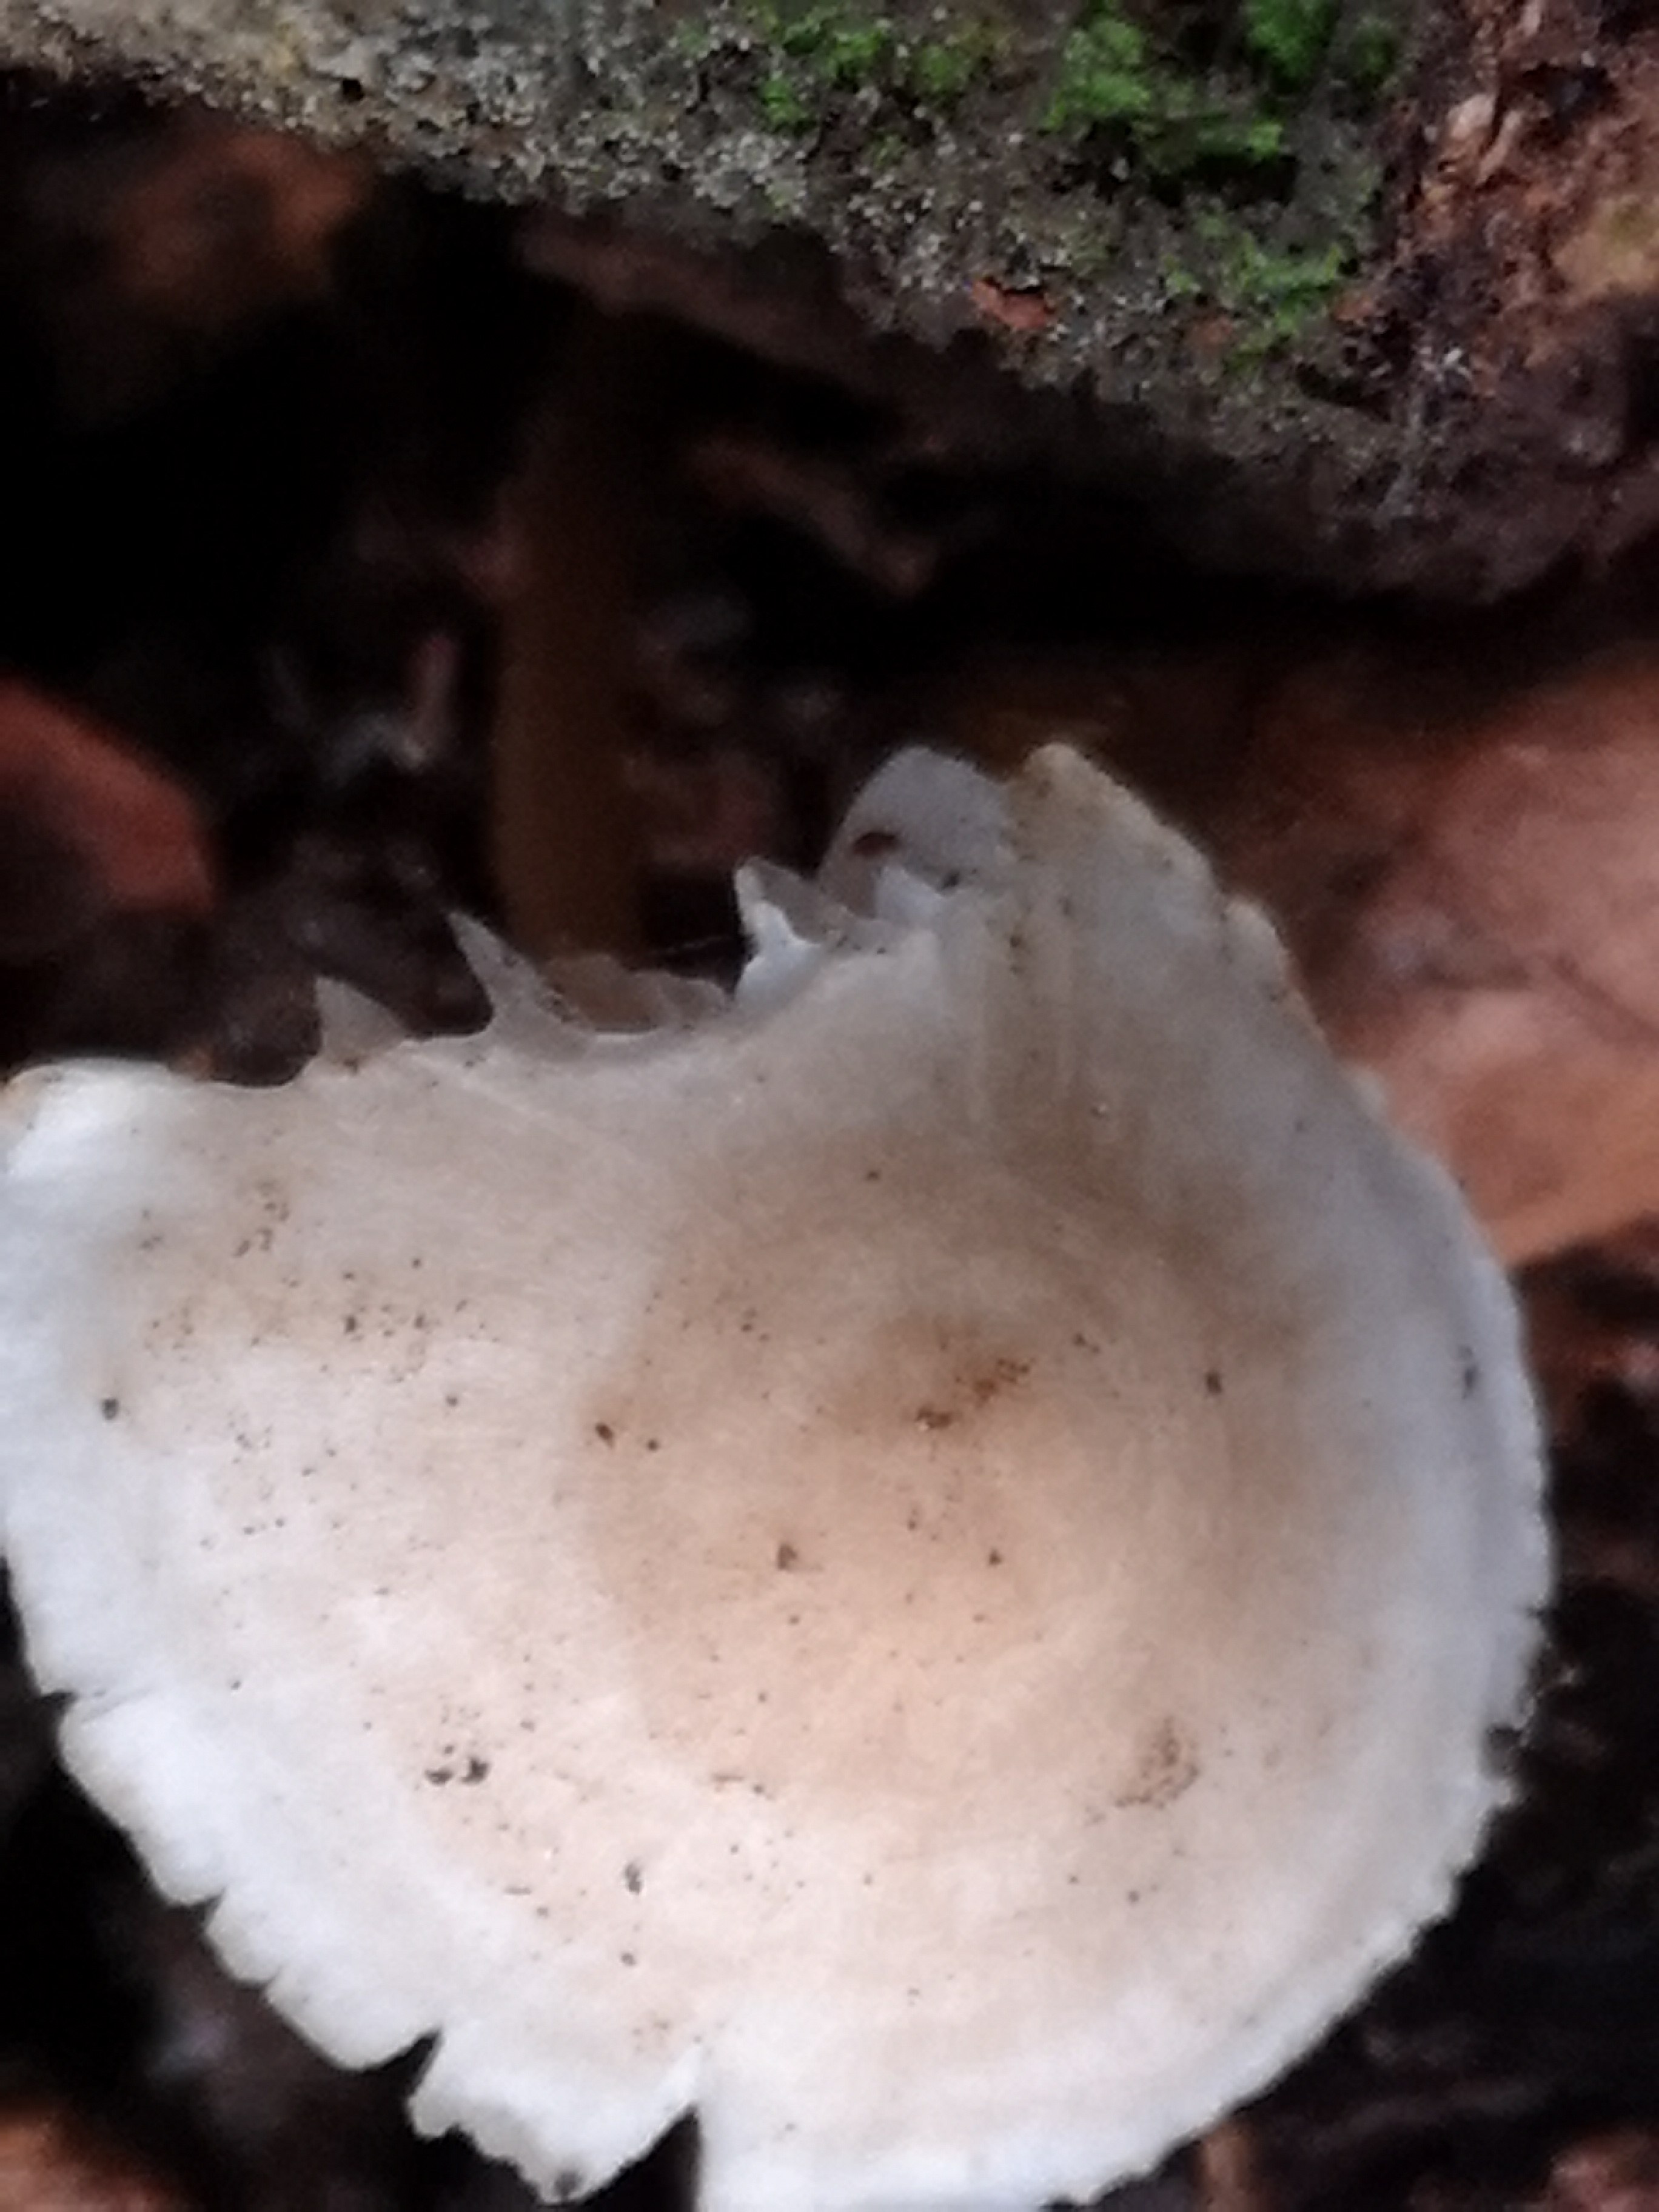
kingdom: Fungi
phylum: Basidiomycota
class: Agaricomycetes
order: Agaricales
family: Mycenaceae
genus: Mycena
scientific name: Mycena galericulata
